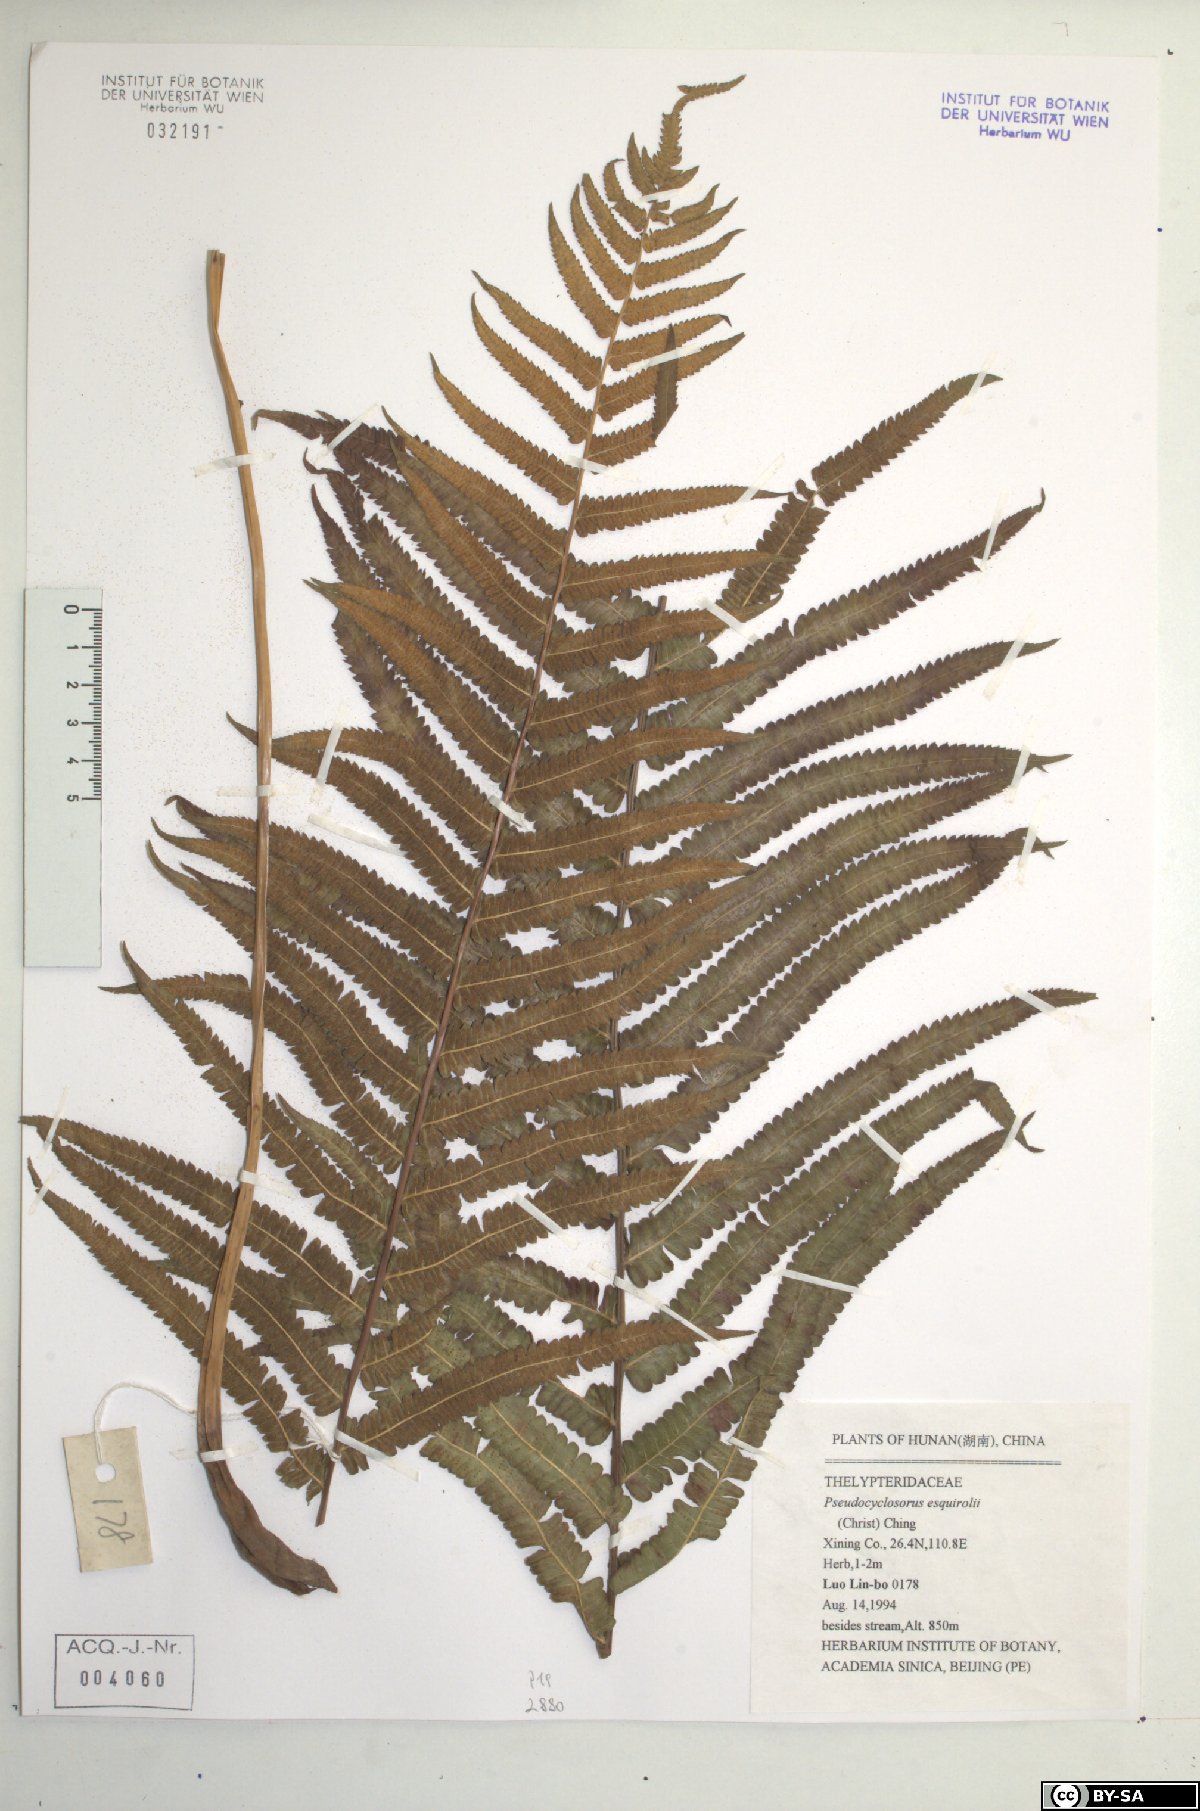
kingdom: Plantae
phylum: Tracheophyta
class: Polypodiopsida
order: Polypodiales
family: Thelypteridaceae
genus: Pseudocyclosorus
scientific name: Pseudocyclosorus esquirolii
